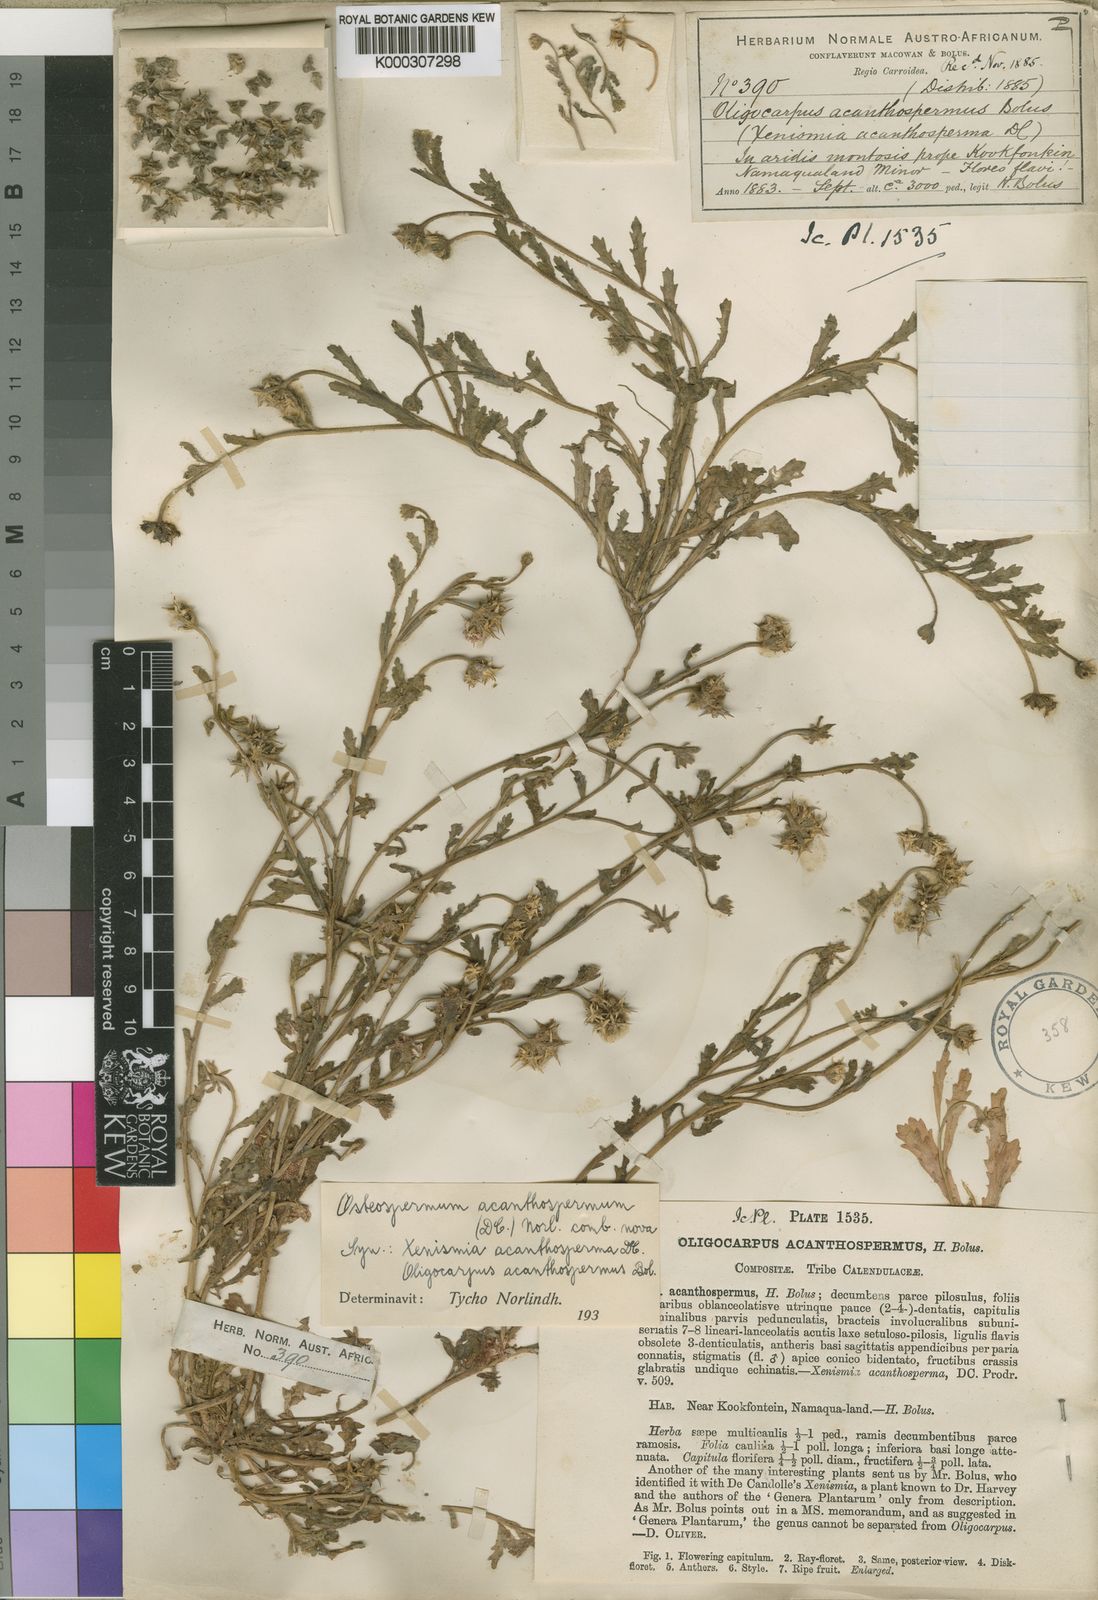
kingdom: Plantae
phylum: Tracheophyta
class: Magnoliopsida
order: Asterales
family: Asteraceae
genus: Osteospermum
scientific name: Osteospermum acanthospermum
